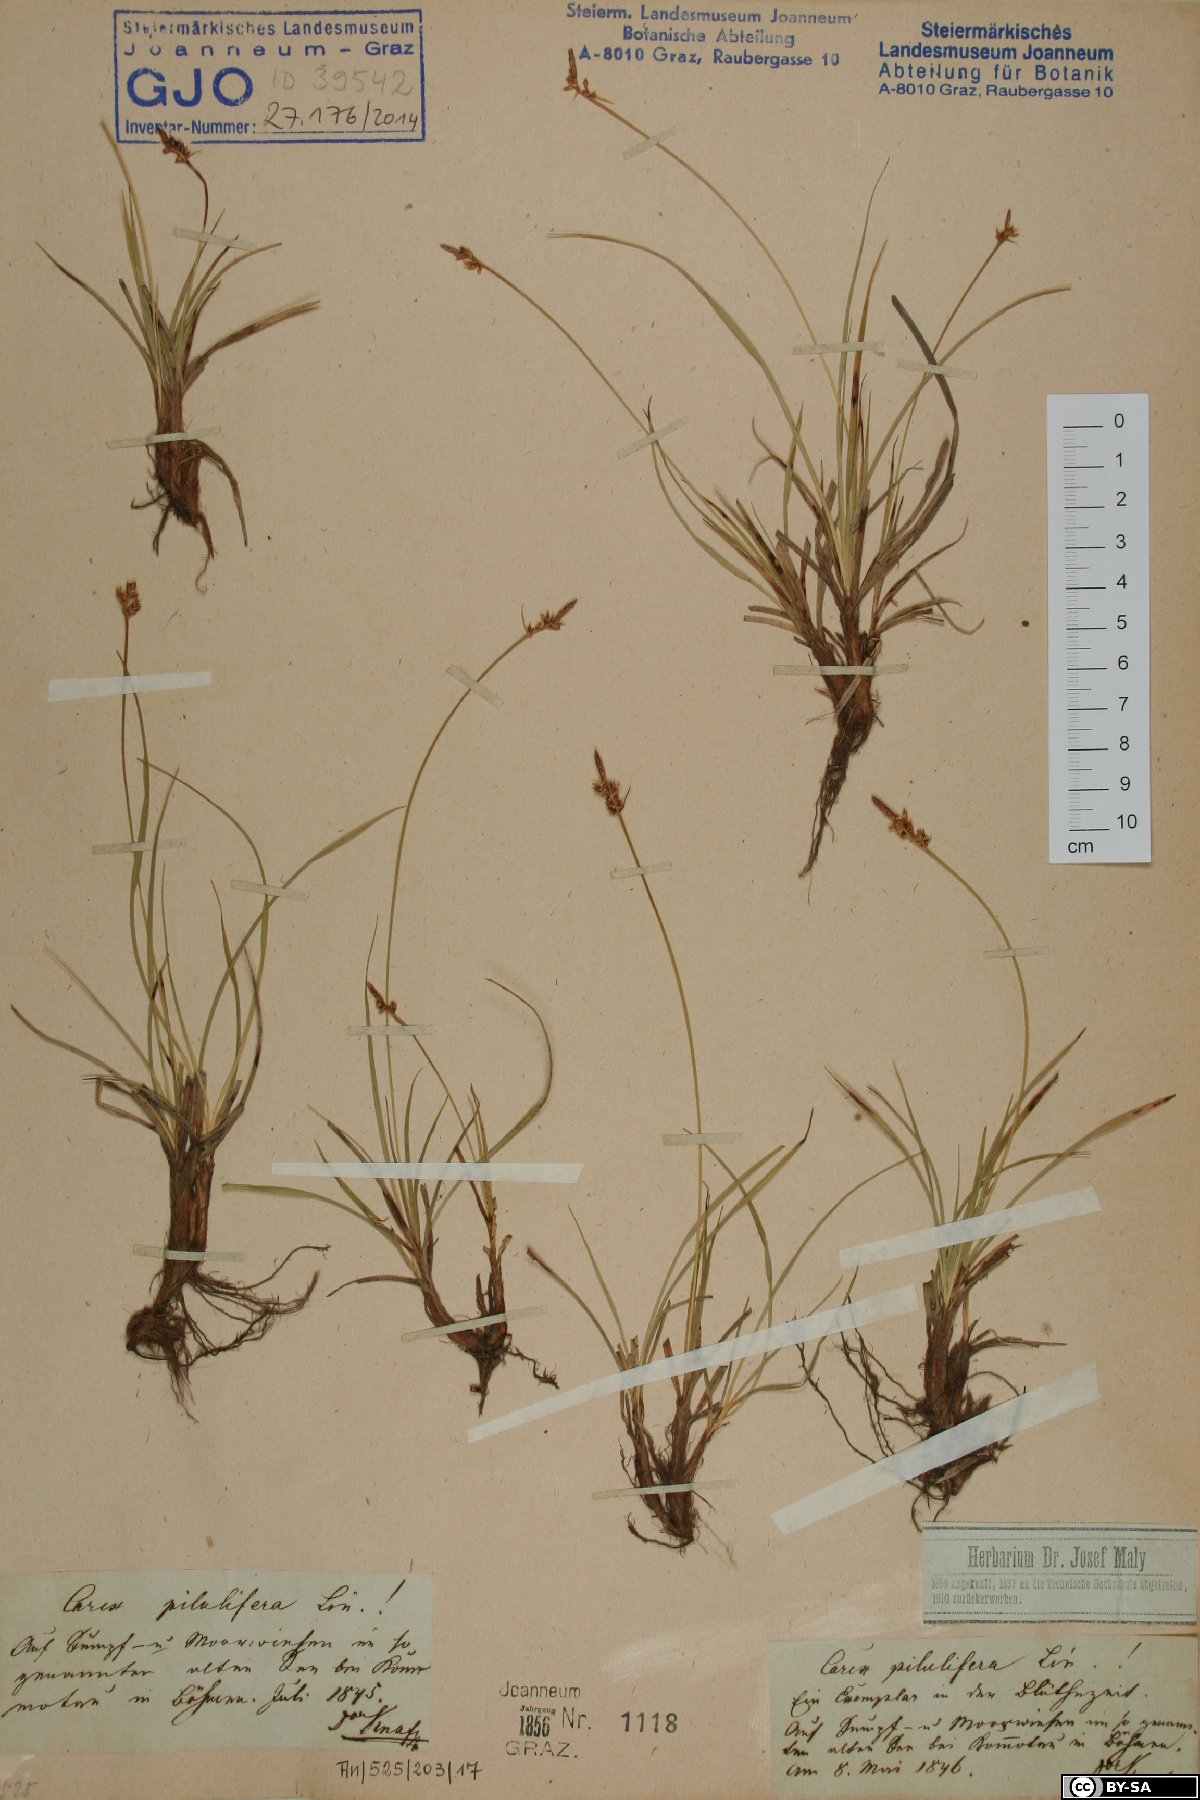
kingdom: Plantae
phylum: Tracheophyta
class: Liliopsida
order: Poales
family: Cyperaceae
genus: Carex
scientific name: Carex pilulifera
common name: Pill sedge
